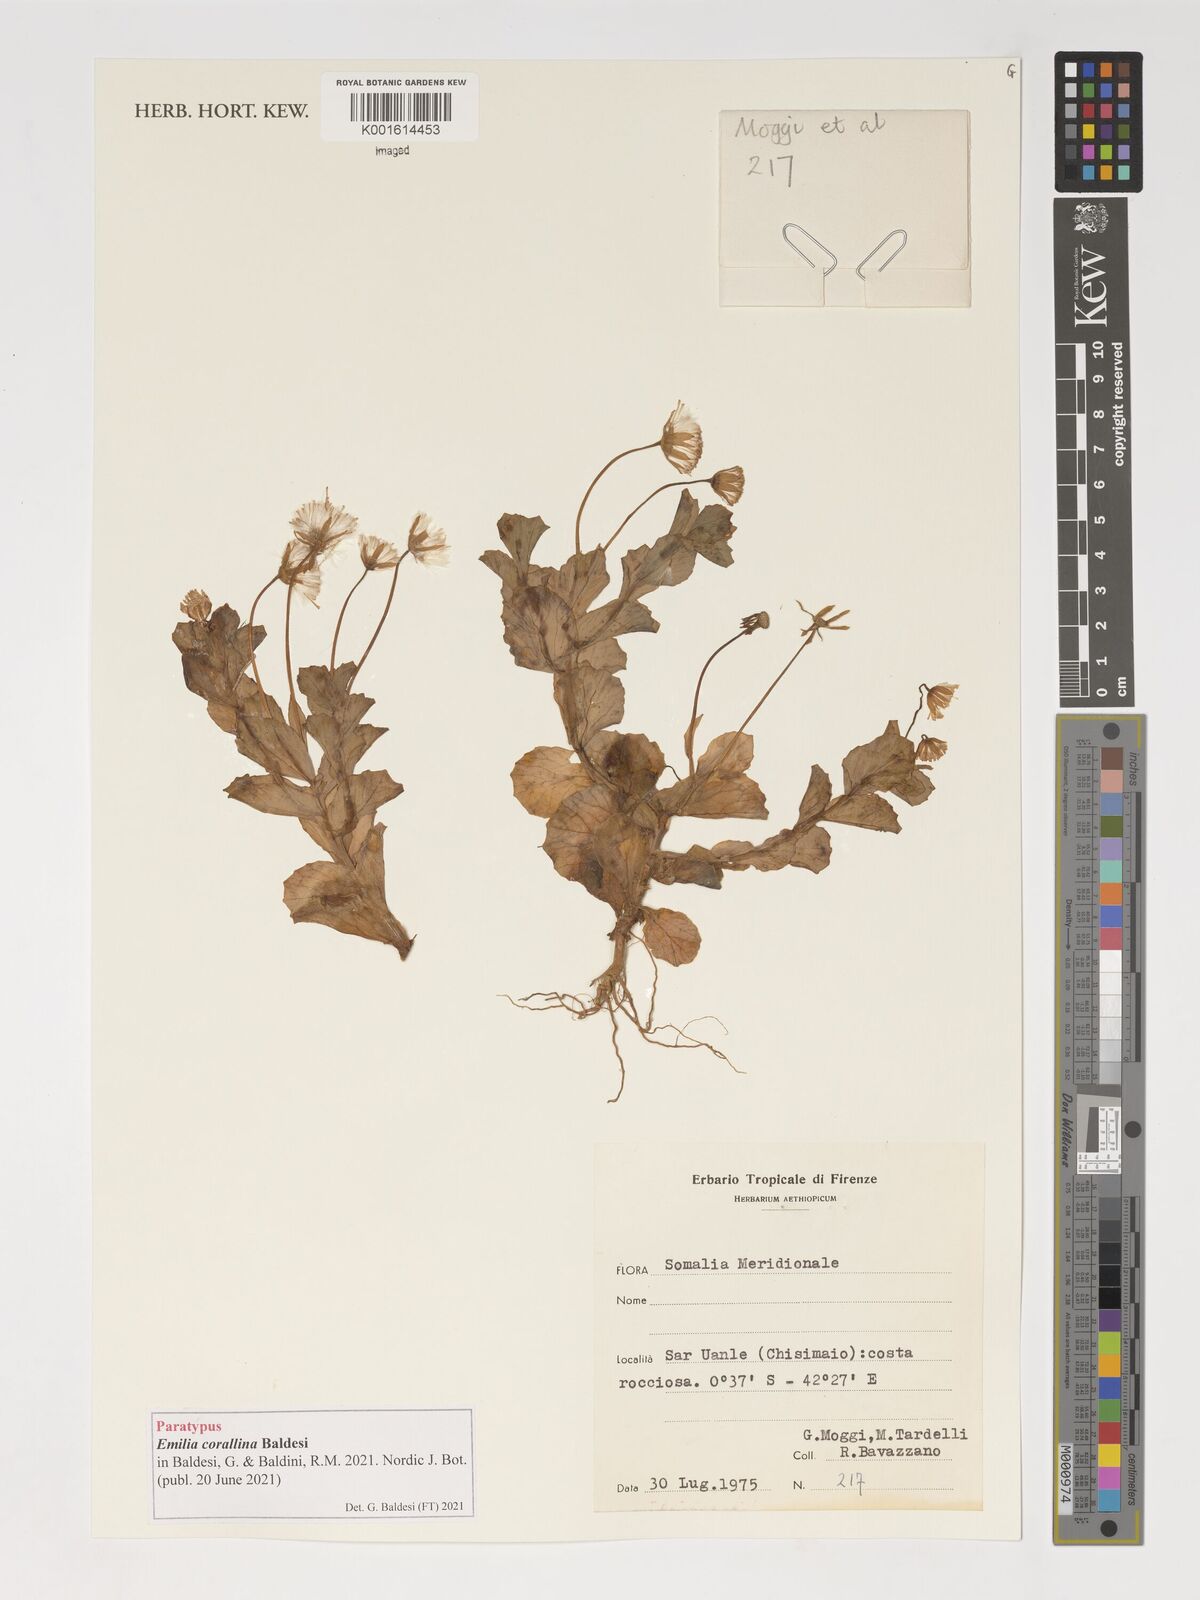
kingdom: Plantae
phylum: Tracheophyta
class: Magnoliopsida
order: Asterales
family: Asteraceae
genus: Emilia
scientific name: Emilia
